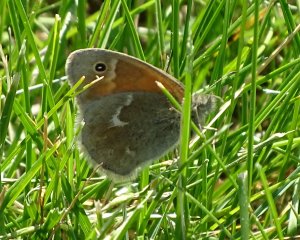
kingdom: Animalia
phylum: Arthropoda
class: Insecta
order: Lepidoptera
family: Nymphalidae
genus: Coenonympha
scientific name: Coenonympha tullia
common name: Large Heath
